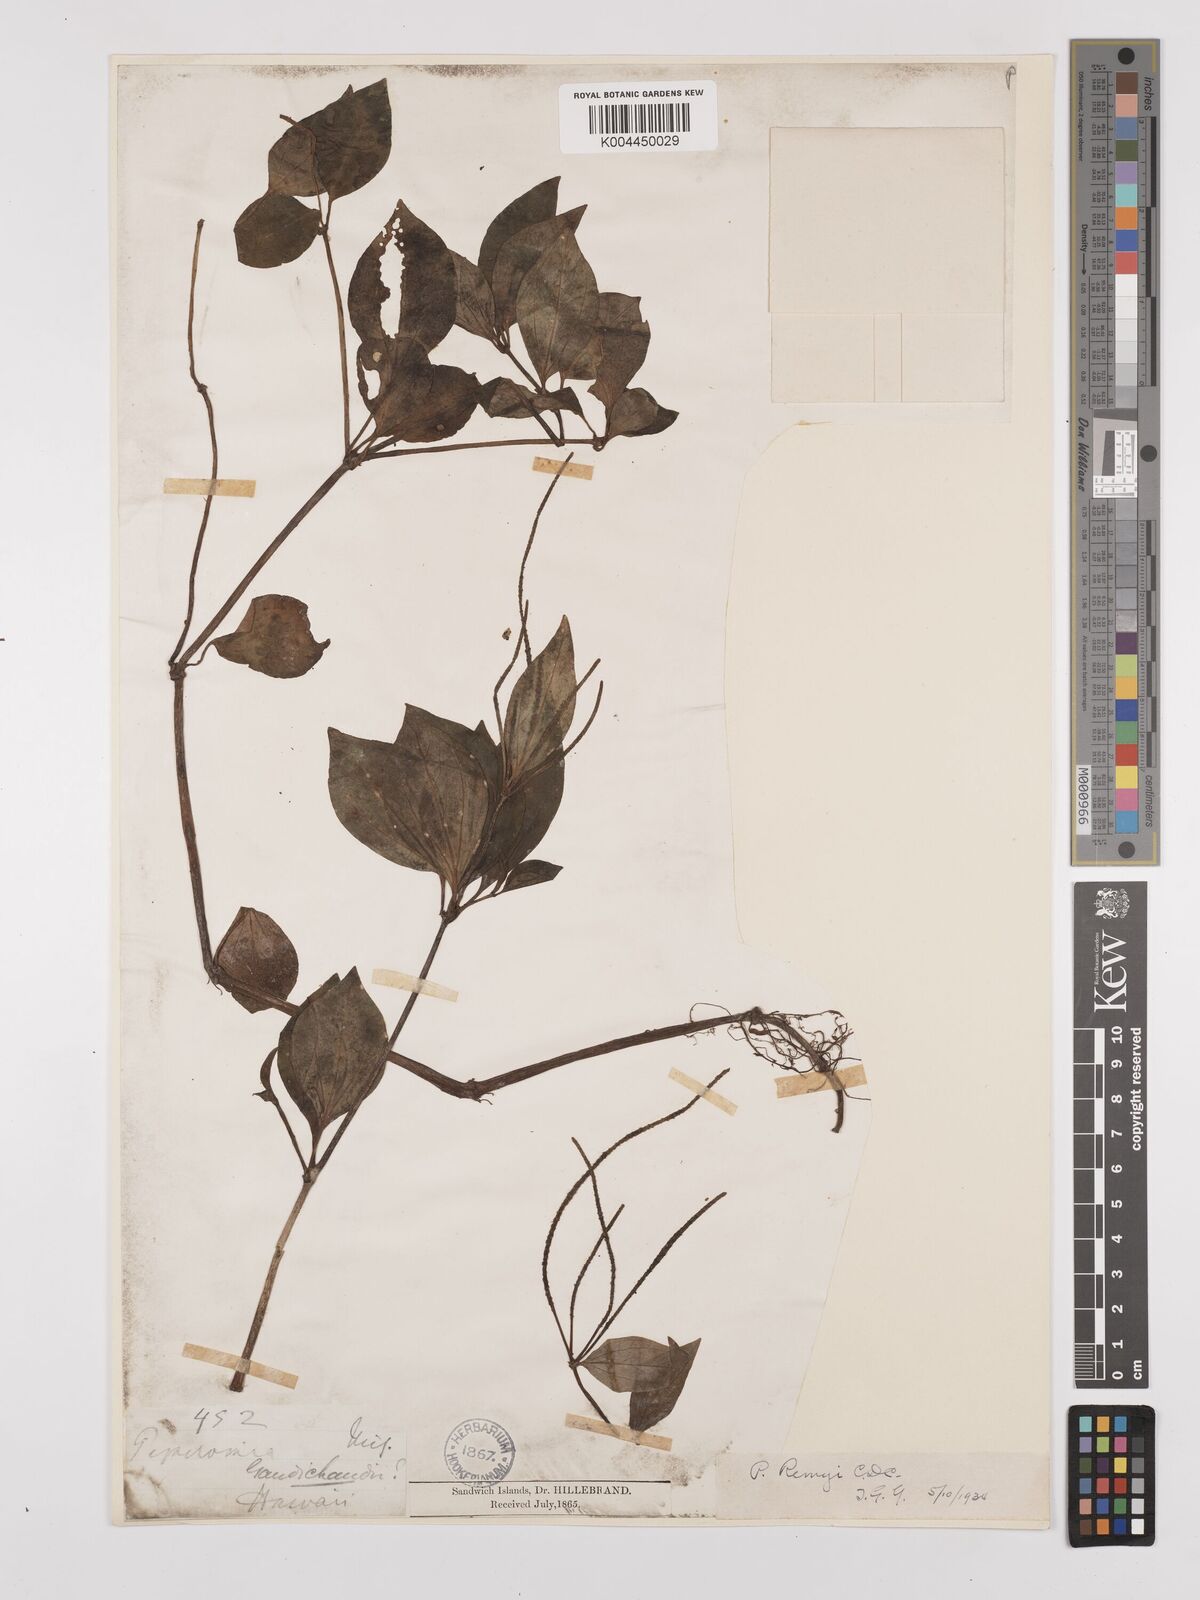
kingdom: Plantae
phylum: Tracheophyta
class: Magnoliopsida
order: Piperales
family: Piperaceae
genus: Peperomia
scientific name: Peperomia remyi
